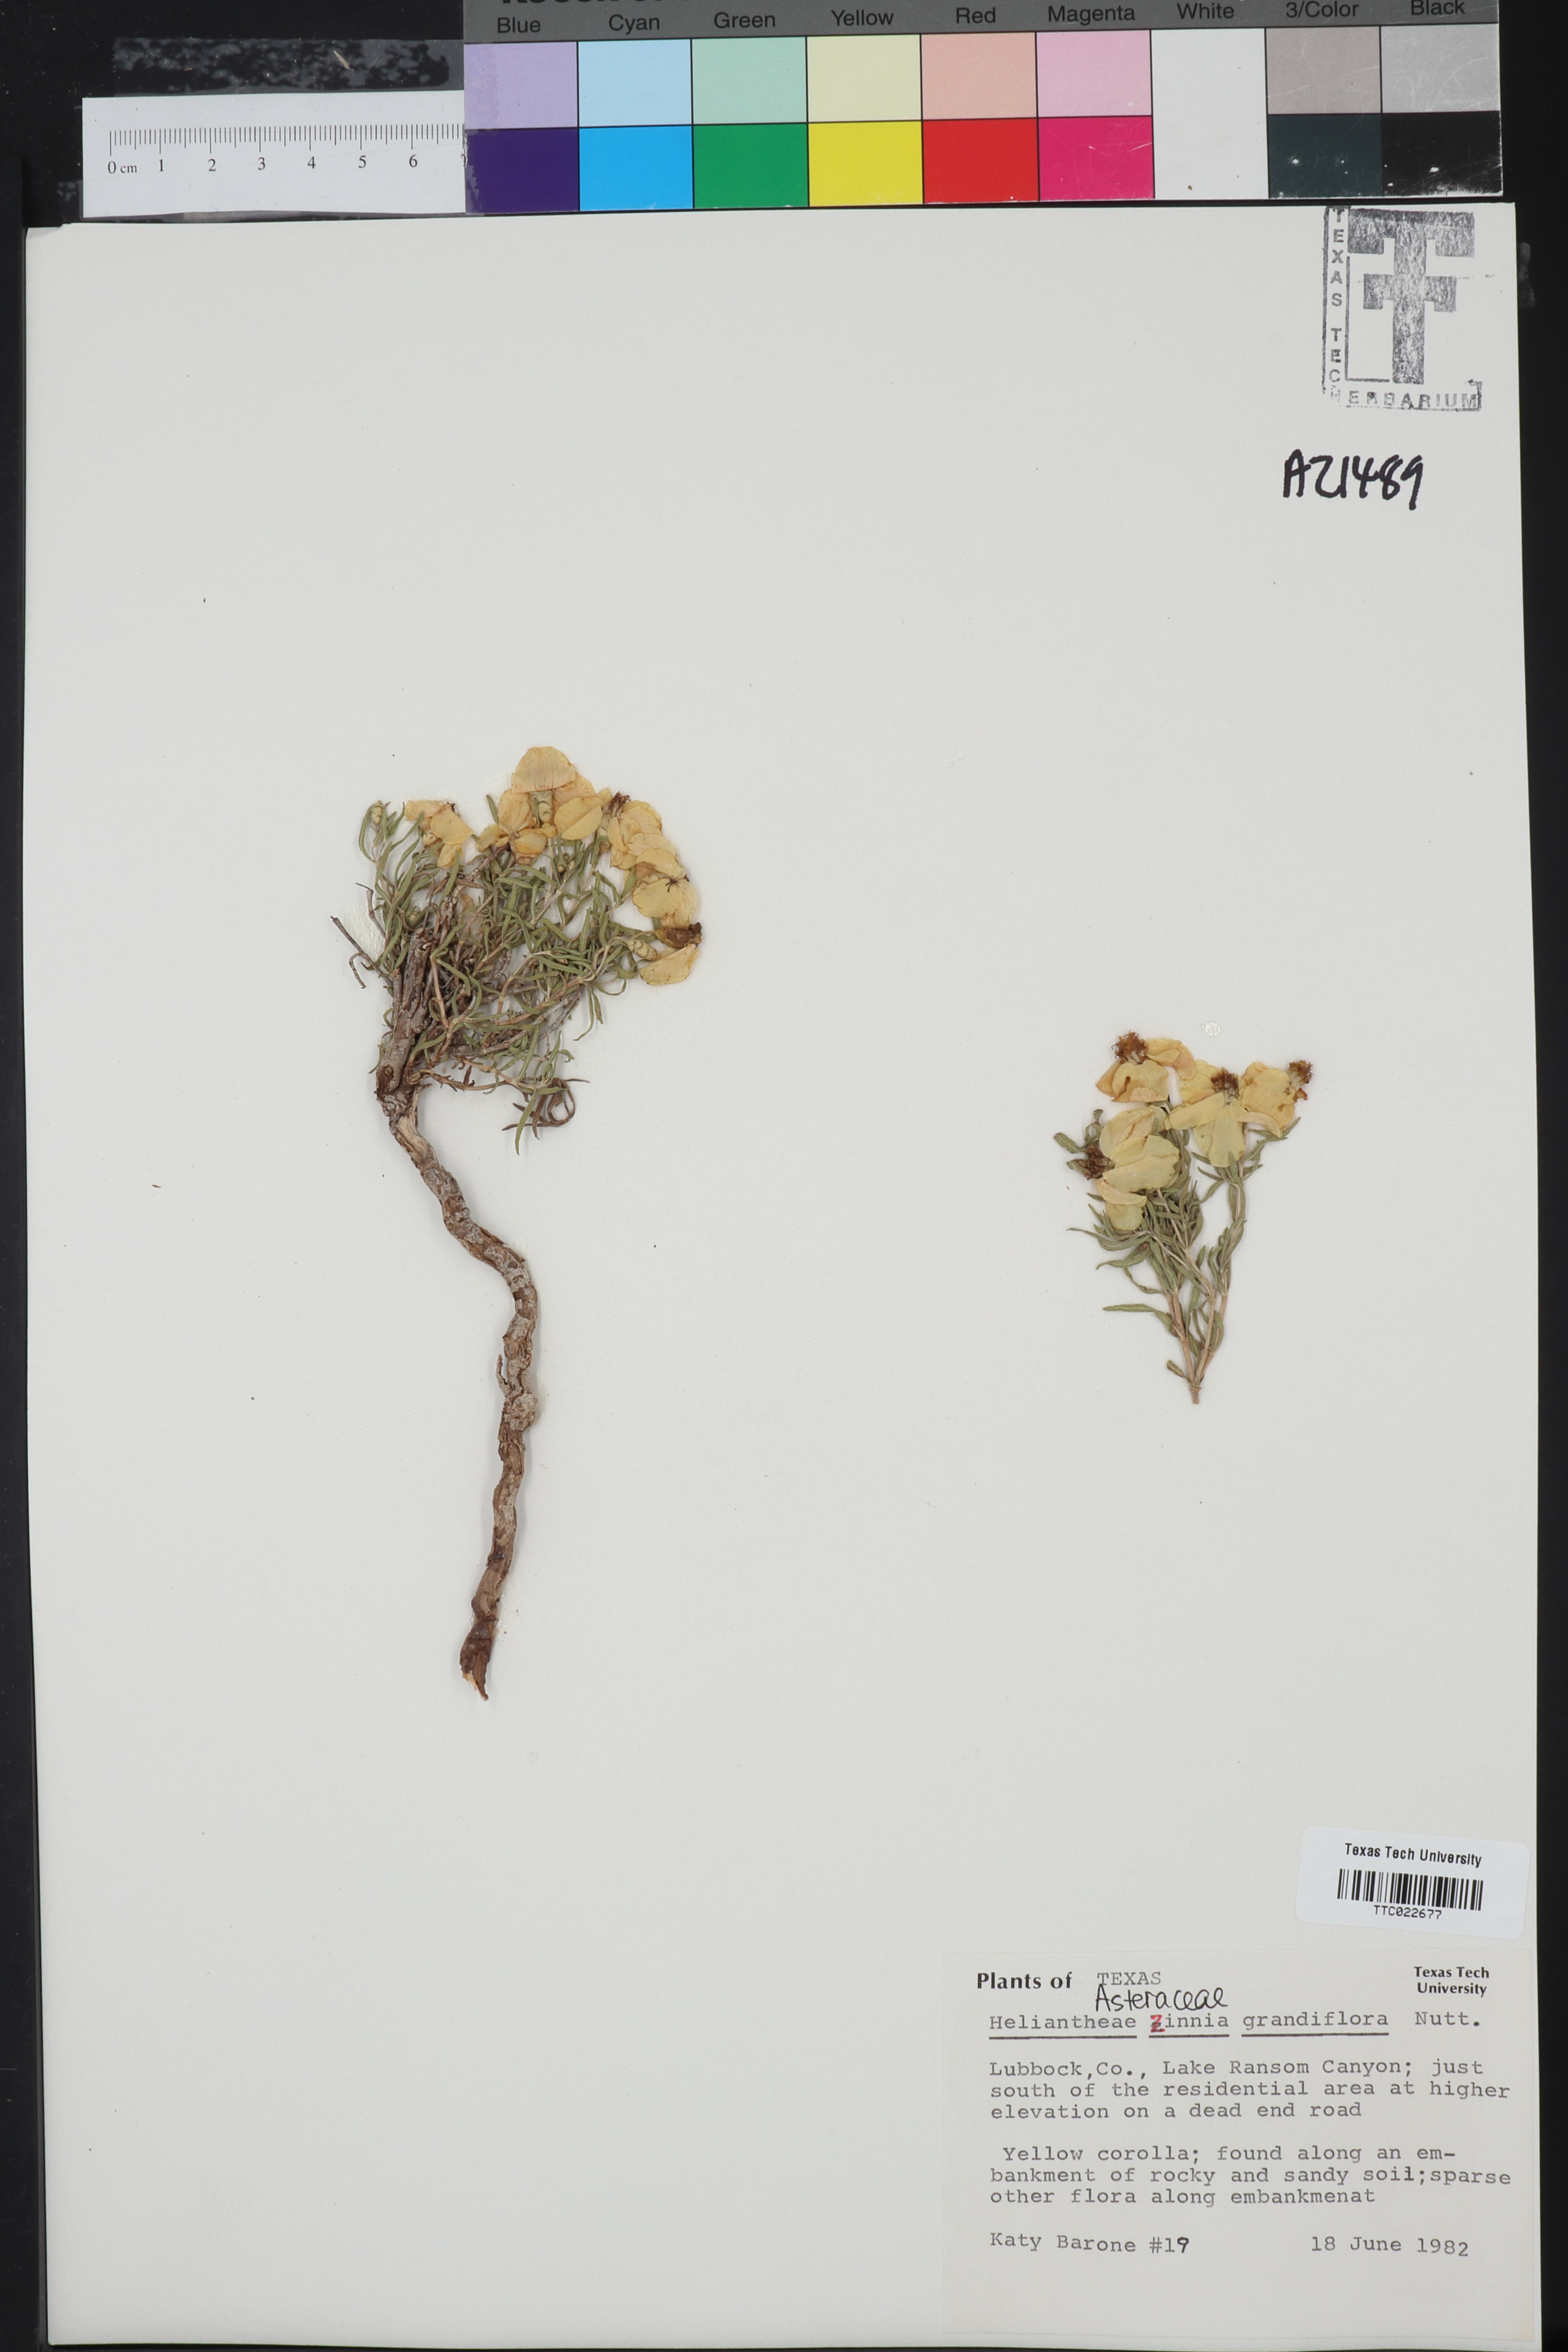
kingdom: Plantae
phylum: Tracheophyta
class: Magnoliopsida
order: Asterales
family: Asteraceae
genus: Zinnia
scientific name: Zinnia grandiflora
